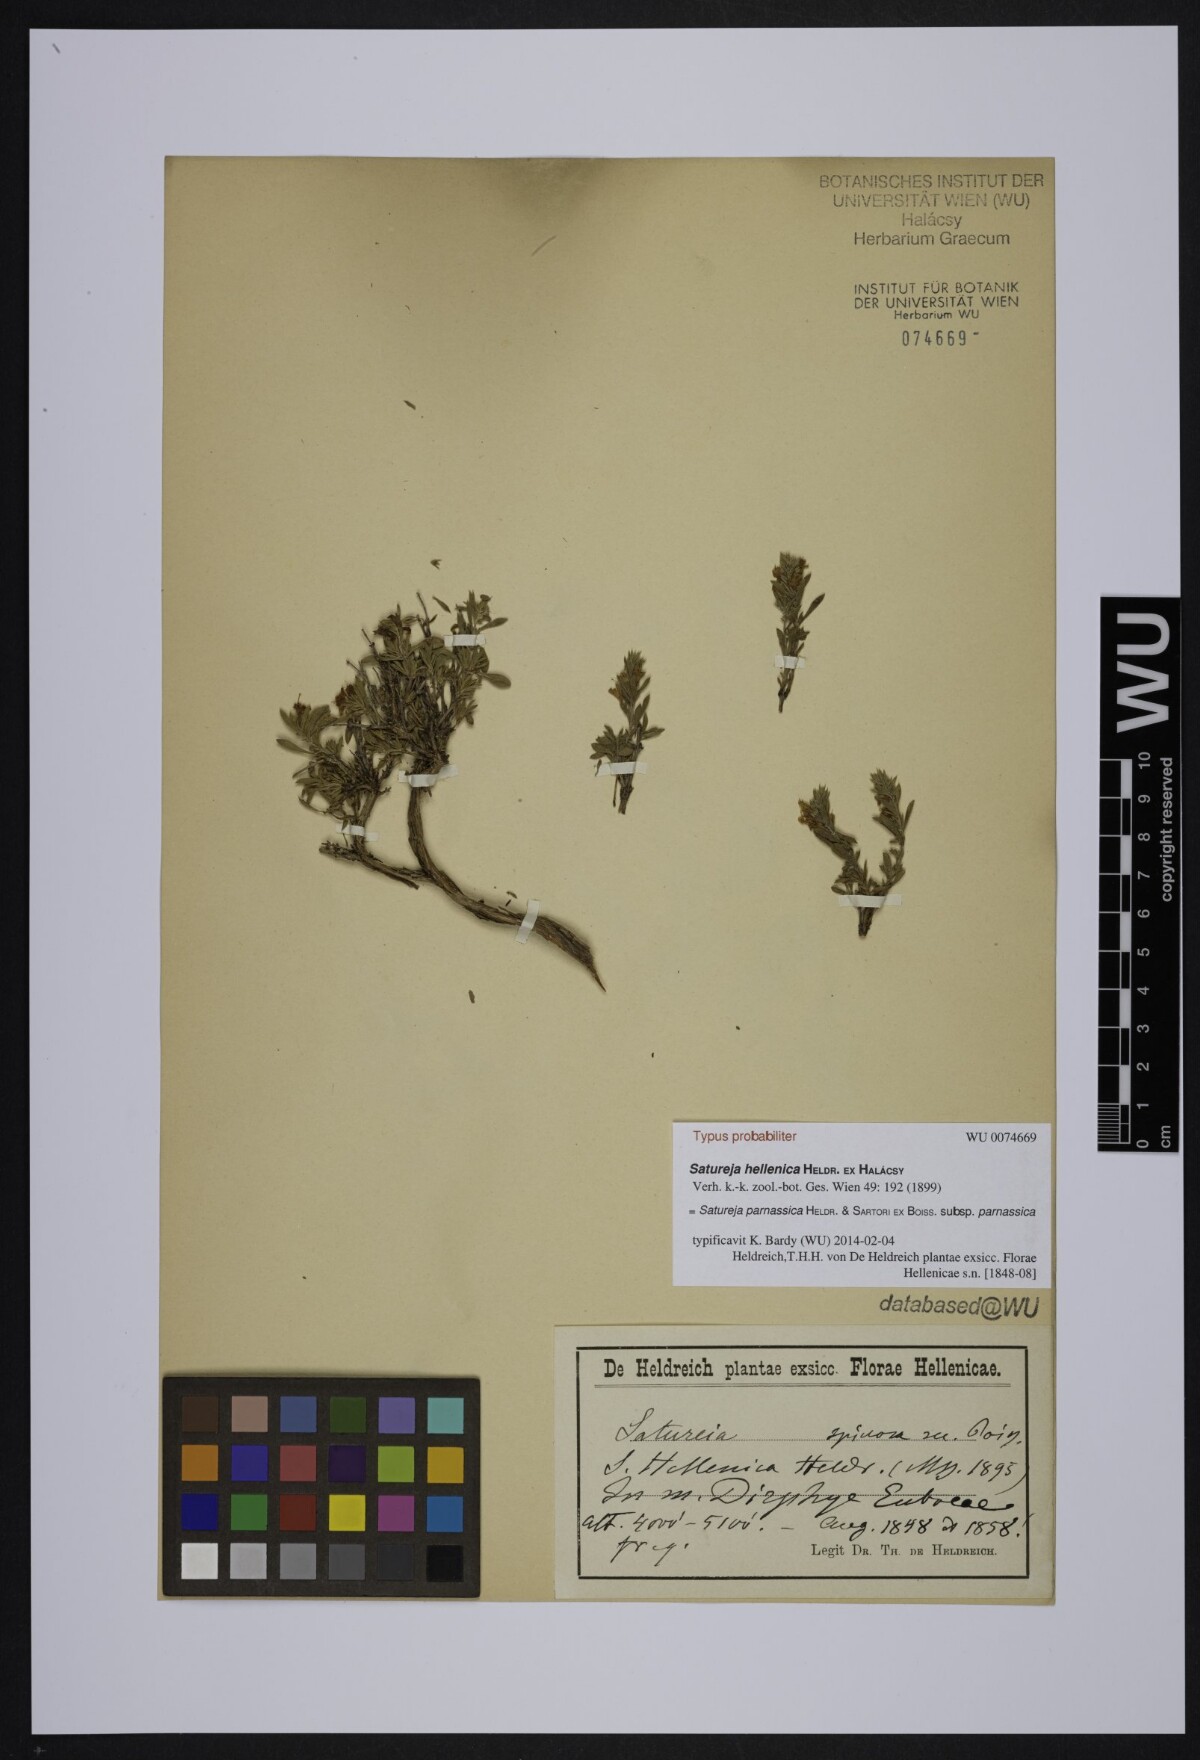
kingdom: Plantae
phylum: Tracheophyta
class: Magnoliopsida
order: Lamiales
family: Lamiaceae
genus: Satureja
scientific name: Satureja hellenica
